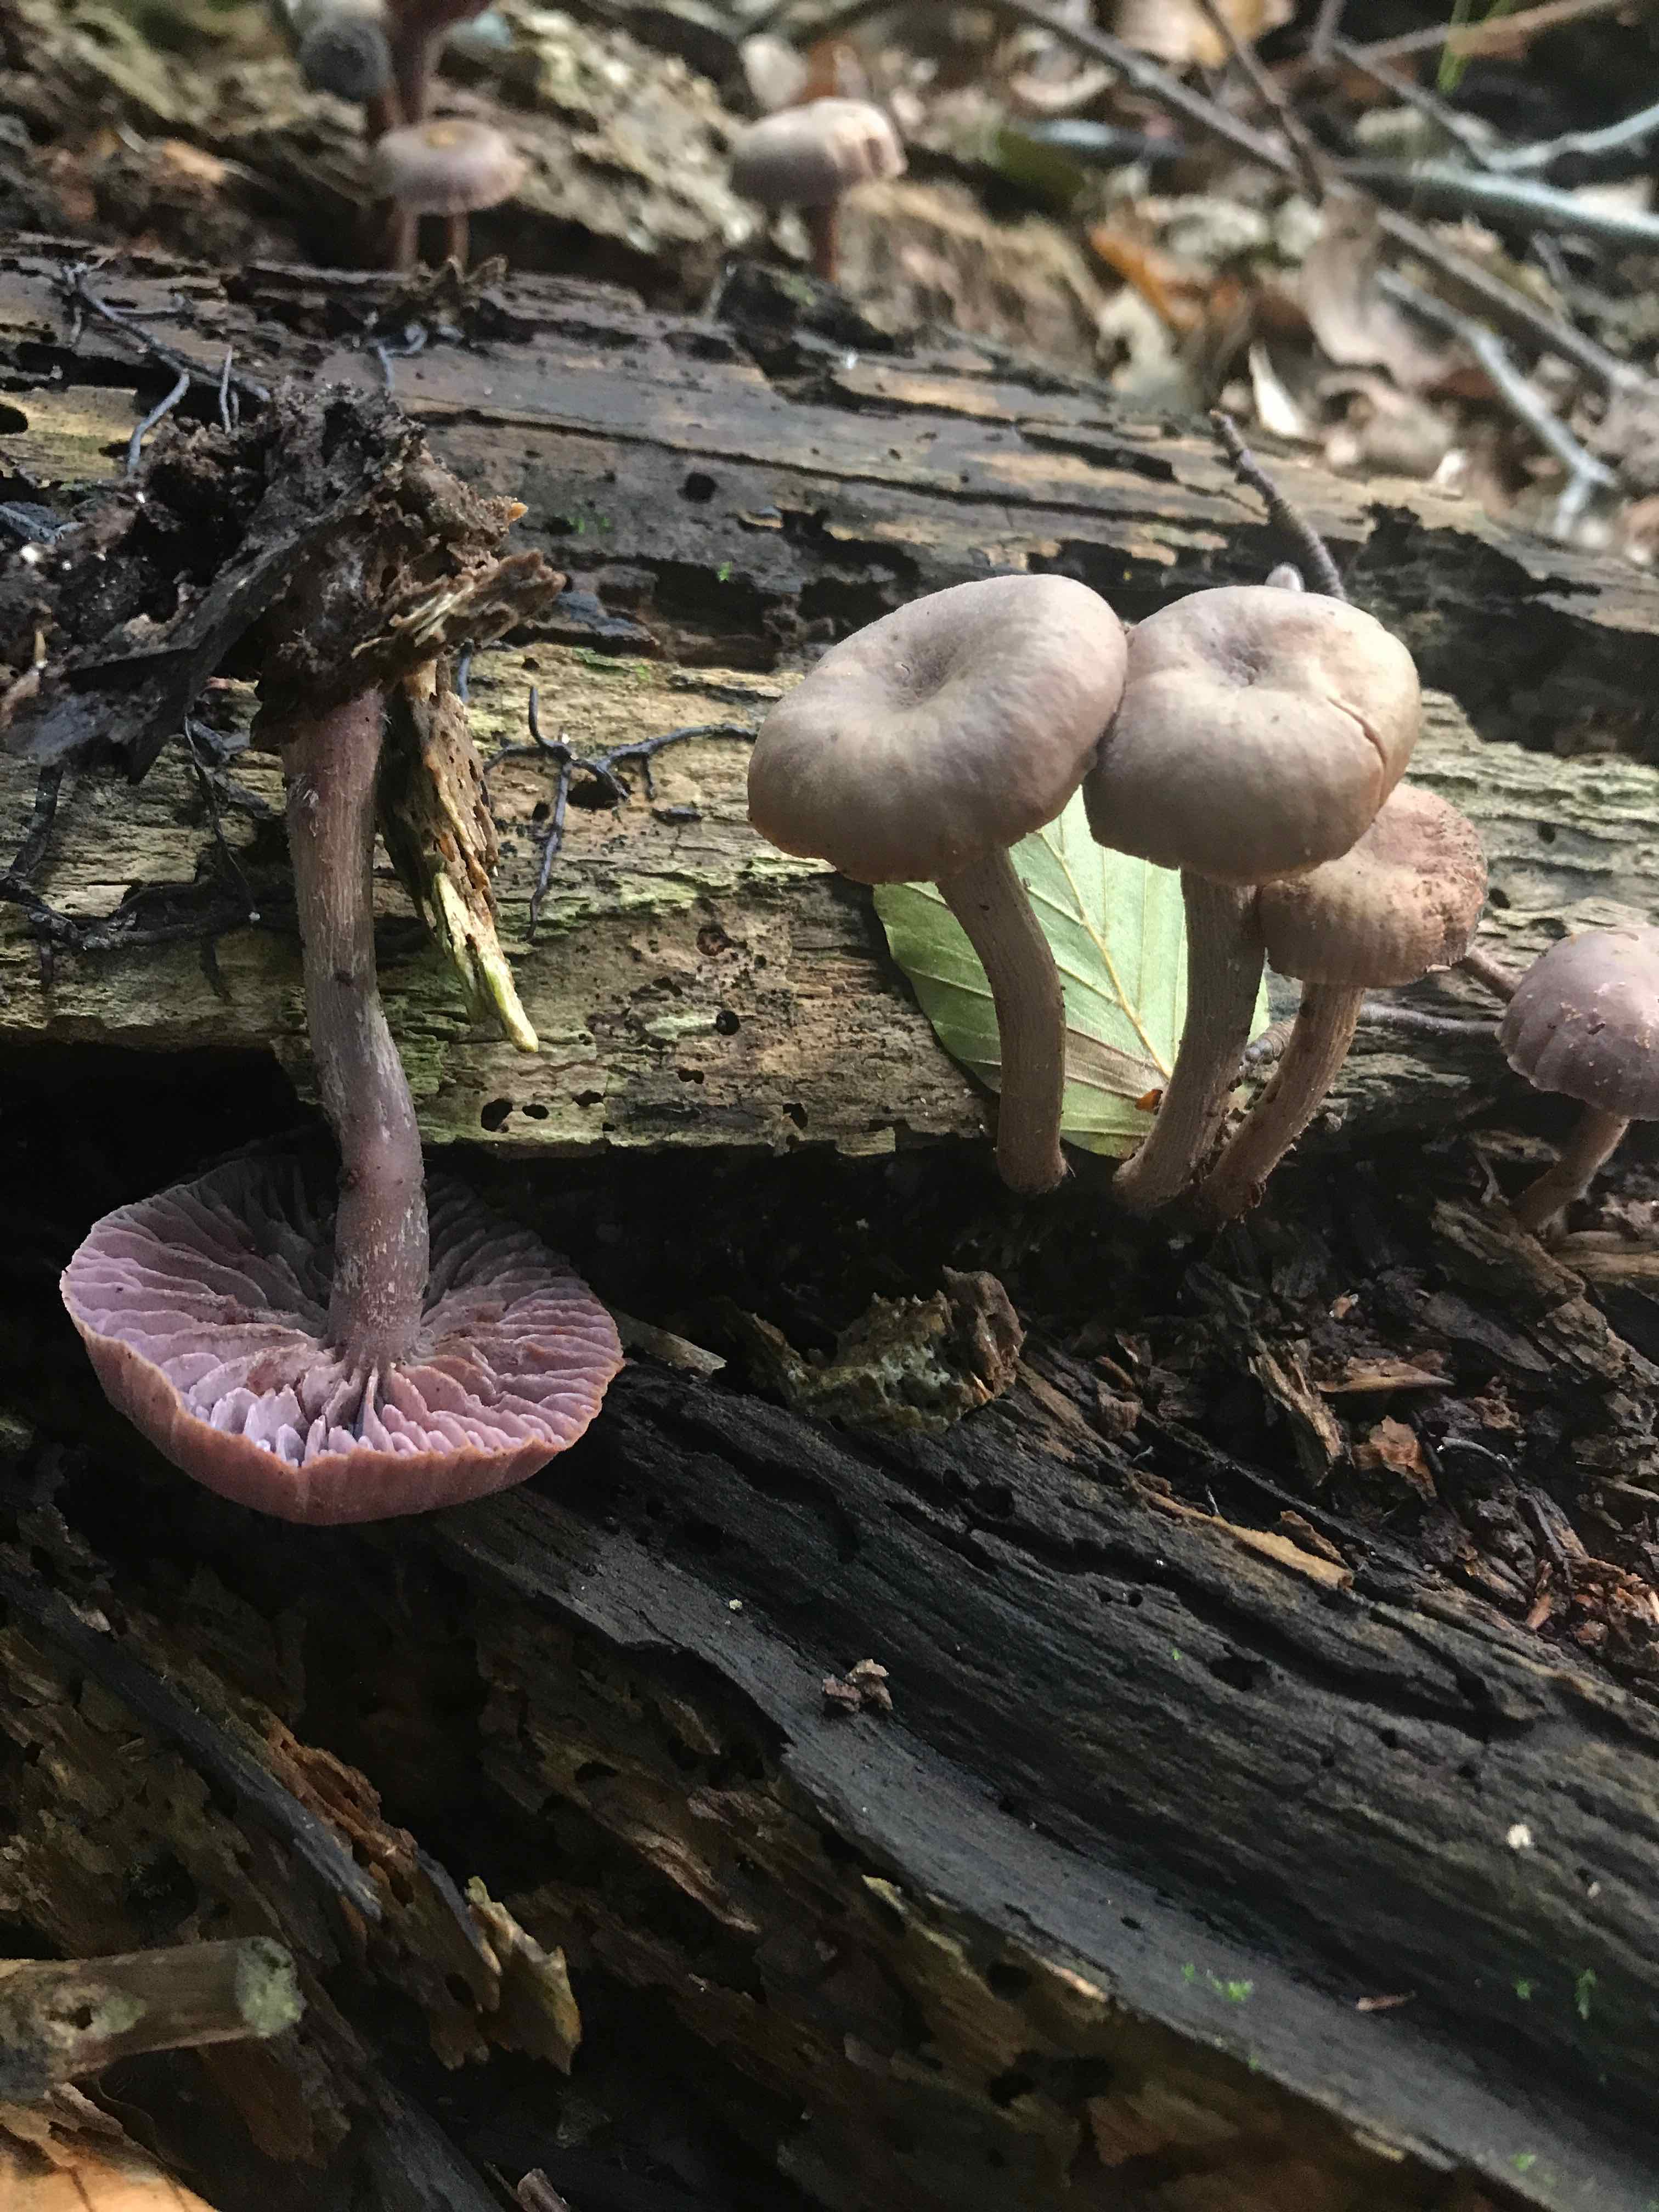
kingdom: Fungi
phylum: Basidiomycota
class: Agaricomycetes
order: Agaricales
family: Hydnangiaceae
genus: Laccaria
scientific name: Laccaria amethystina
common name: violet ametysthat
